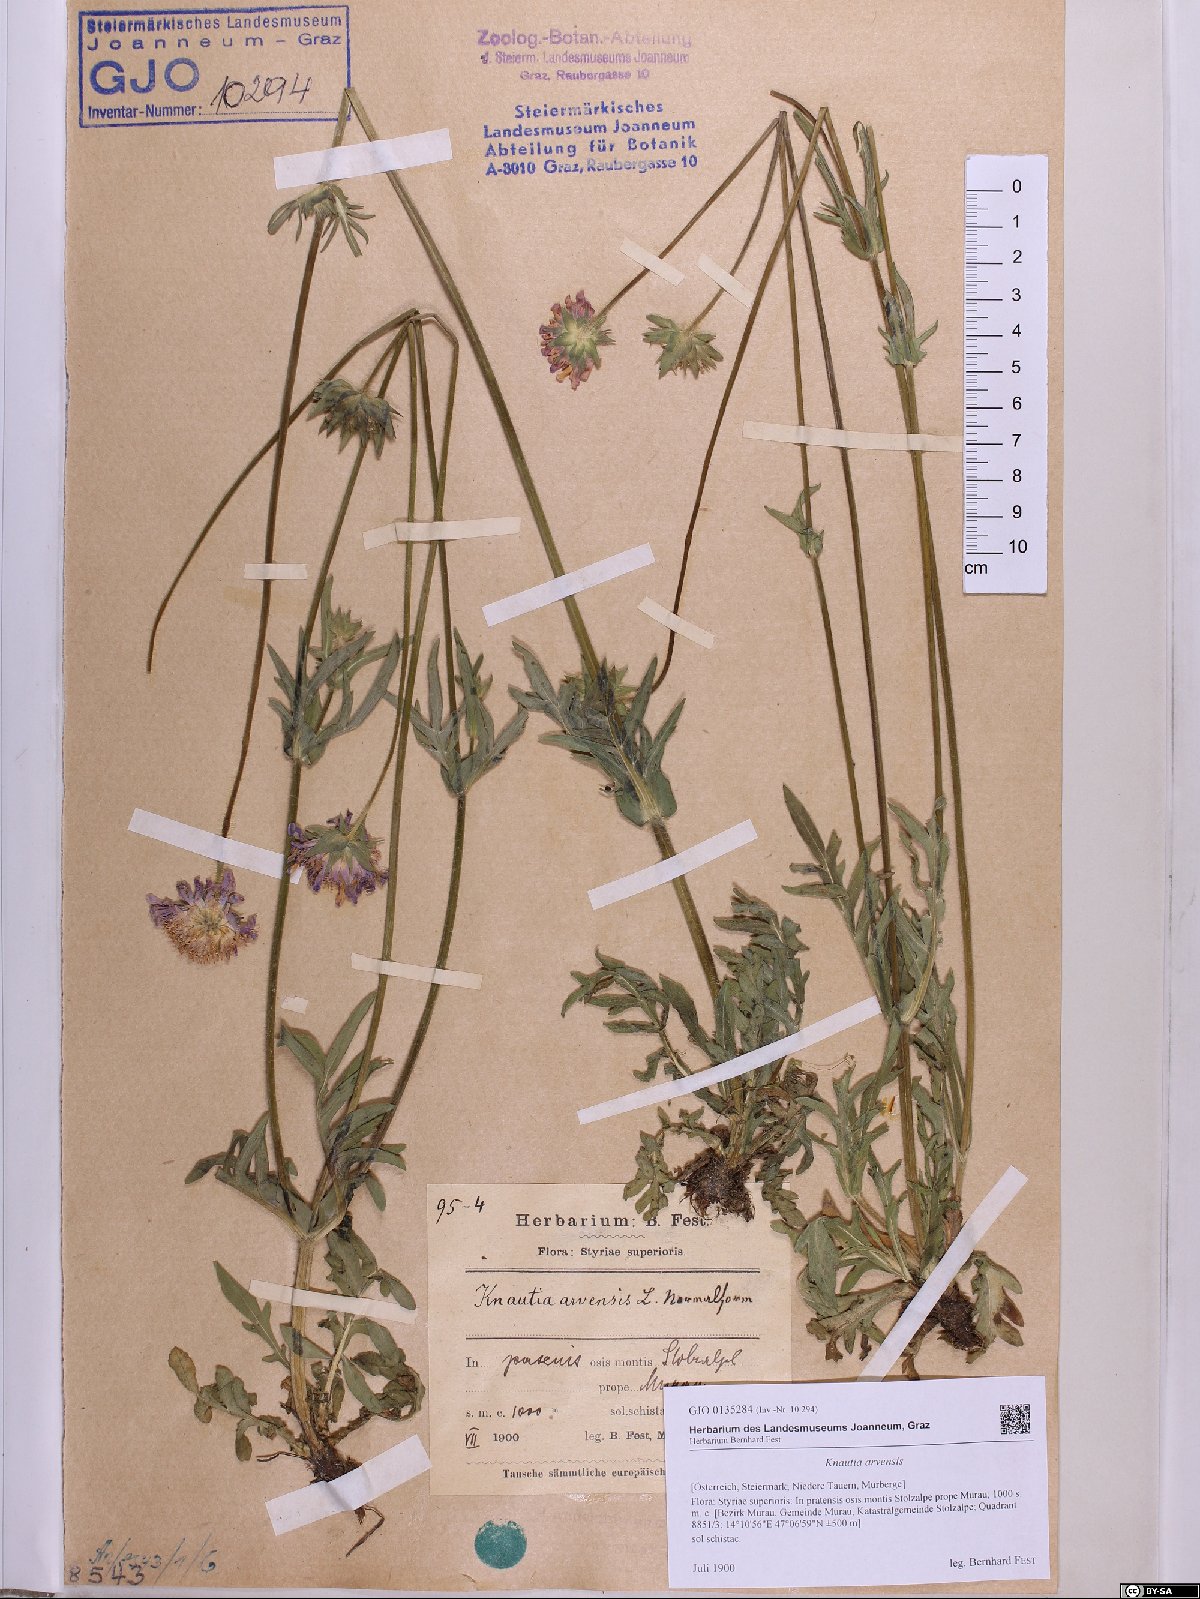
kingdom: Plantae
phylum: Tracheophyta
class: Magnoliopsida
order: Dipsacales
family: Caprifoliaceae
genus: Knautia
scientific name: Knautia arvensis
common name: Field scabiosa
